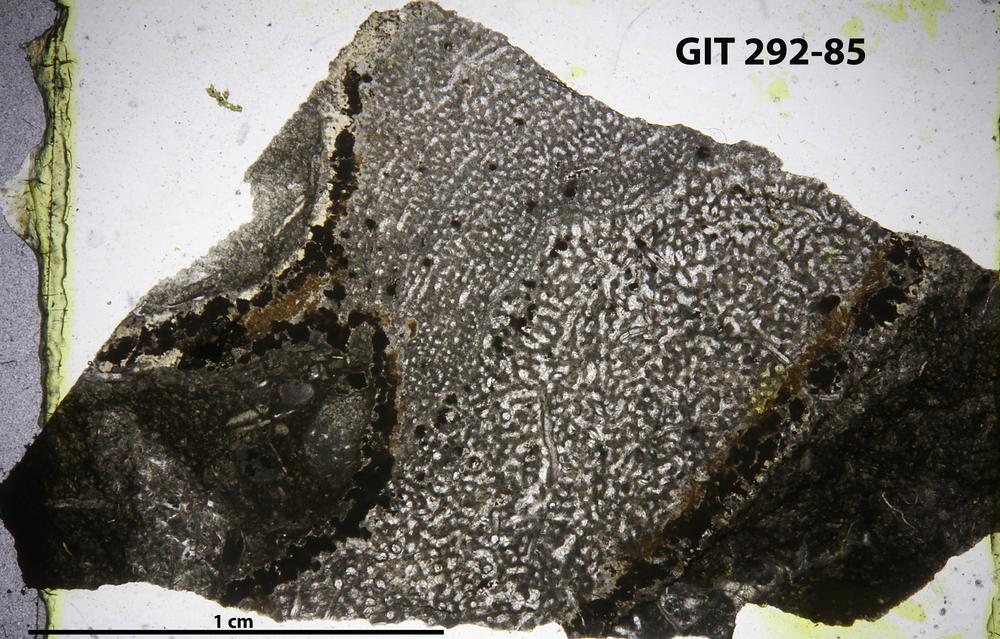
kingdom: Animalia
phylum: Porifera
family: Stromatoporidae
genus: Stromatopora
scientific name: Stromatopora
